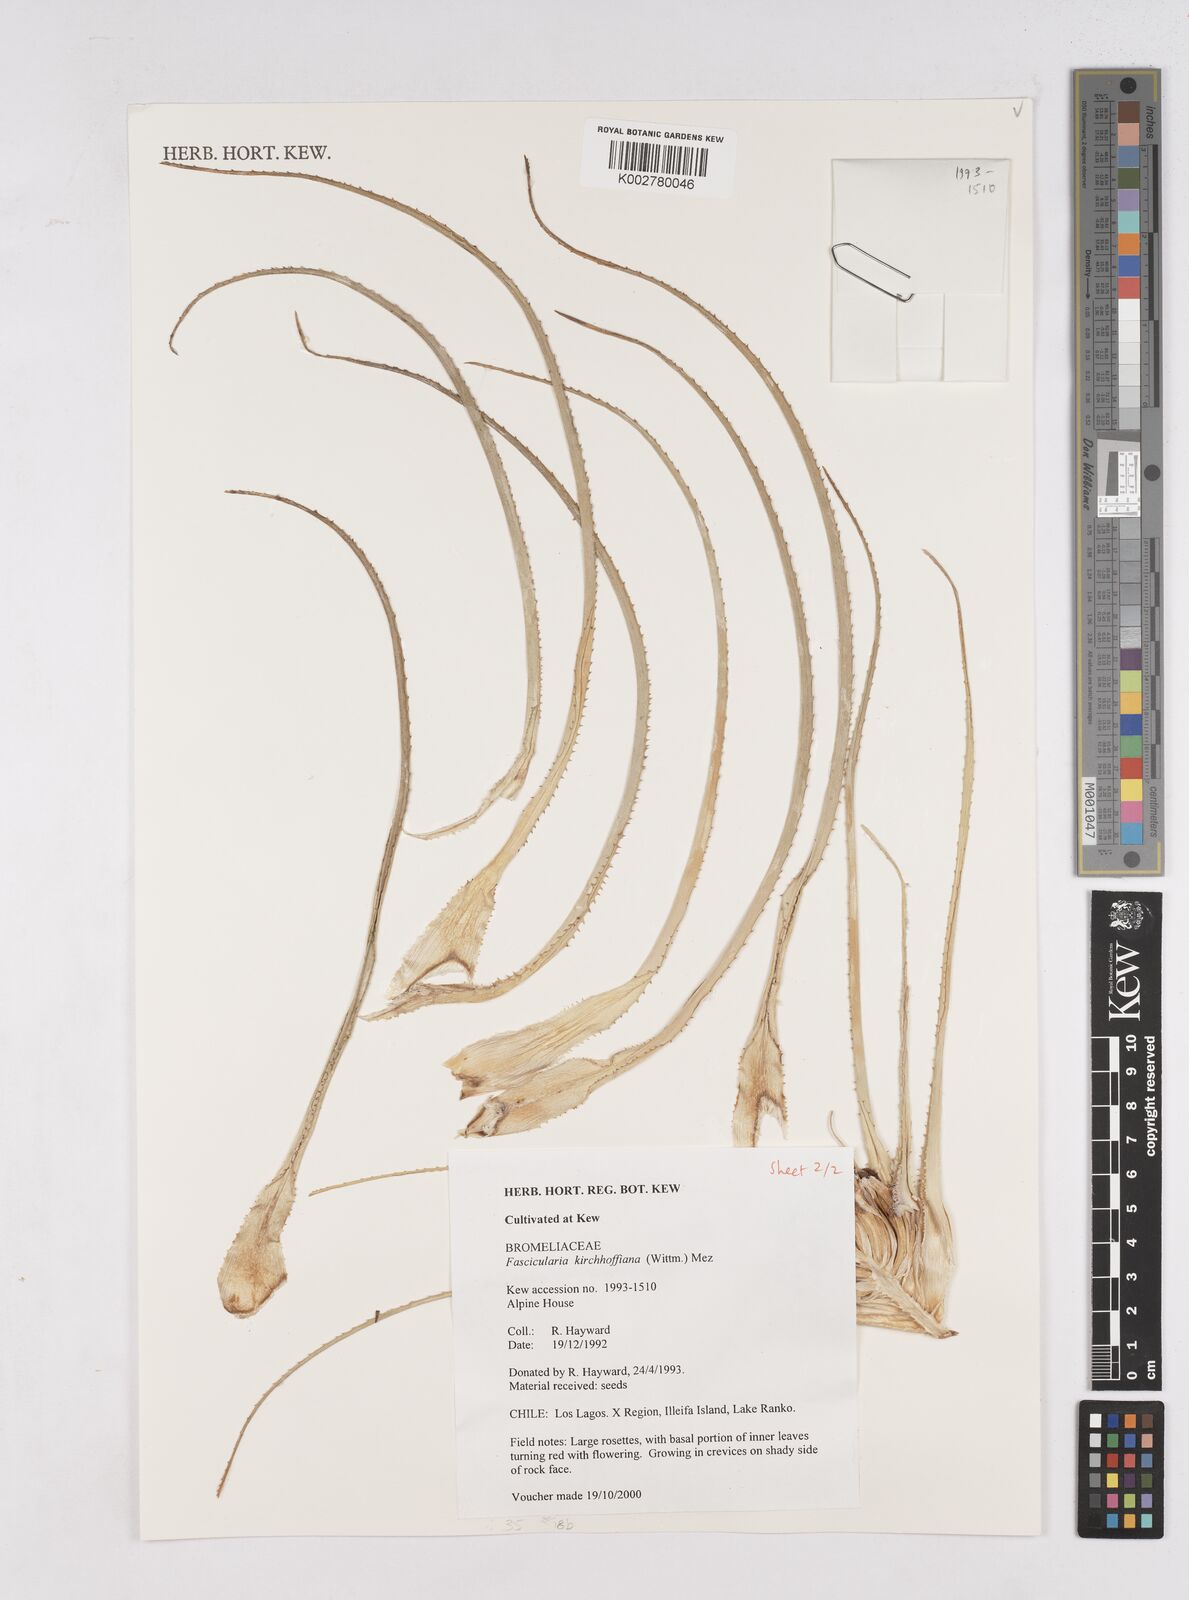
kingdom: Plantae
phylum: Tracheophyta
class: Liliopsida
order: Poales
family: Bromeliaceae
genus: Fascicularia
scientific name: Fascicularia bicolor
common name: Rhodostachys
